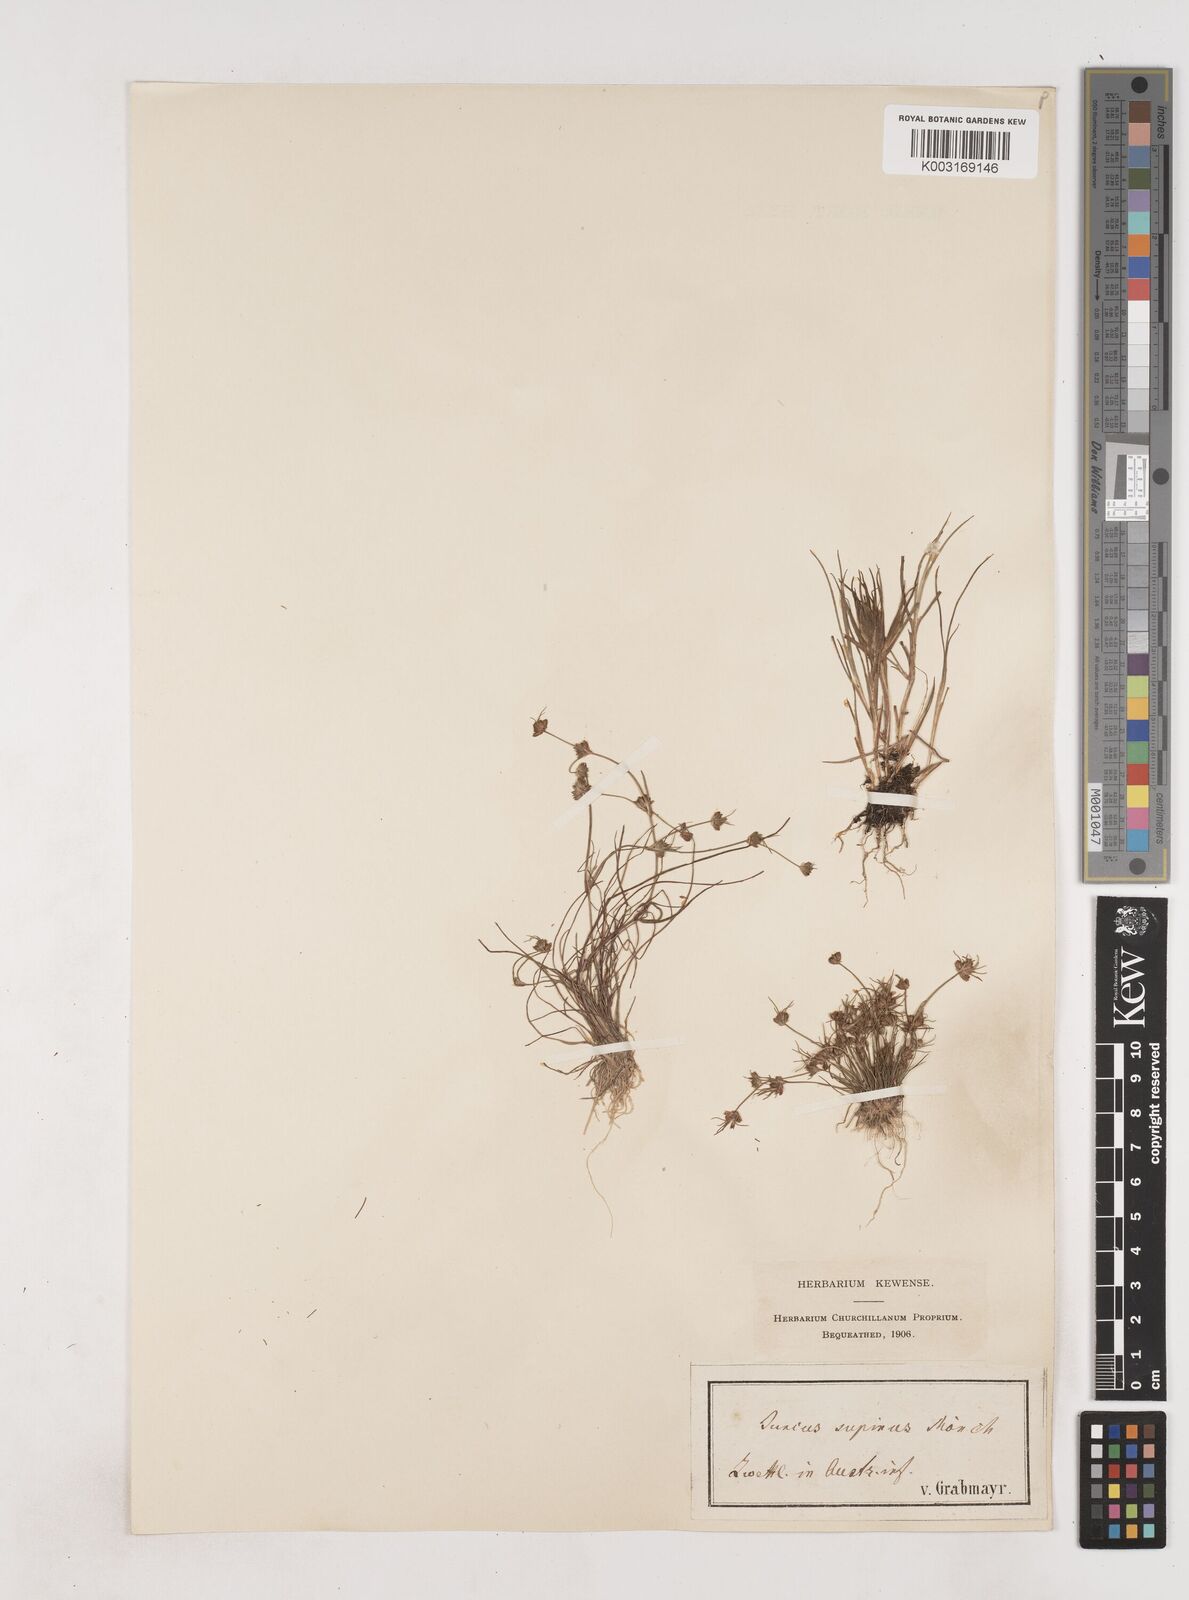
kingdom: Plantae
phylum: Tracheophyta
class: Liliopsida
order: Poales
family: Juncaceae
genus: Juncus
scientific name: Juncus bulbosus
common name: Bulbous rush
